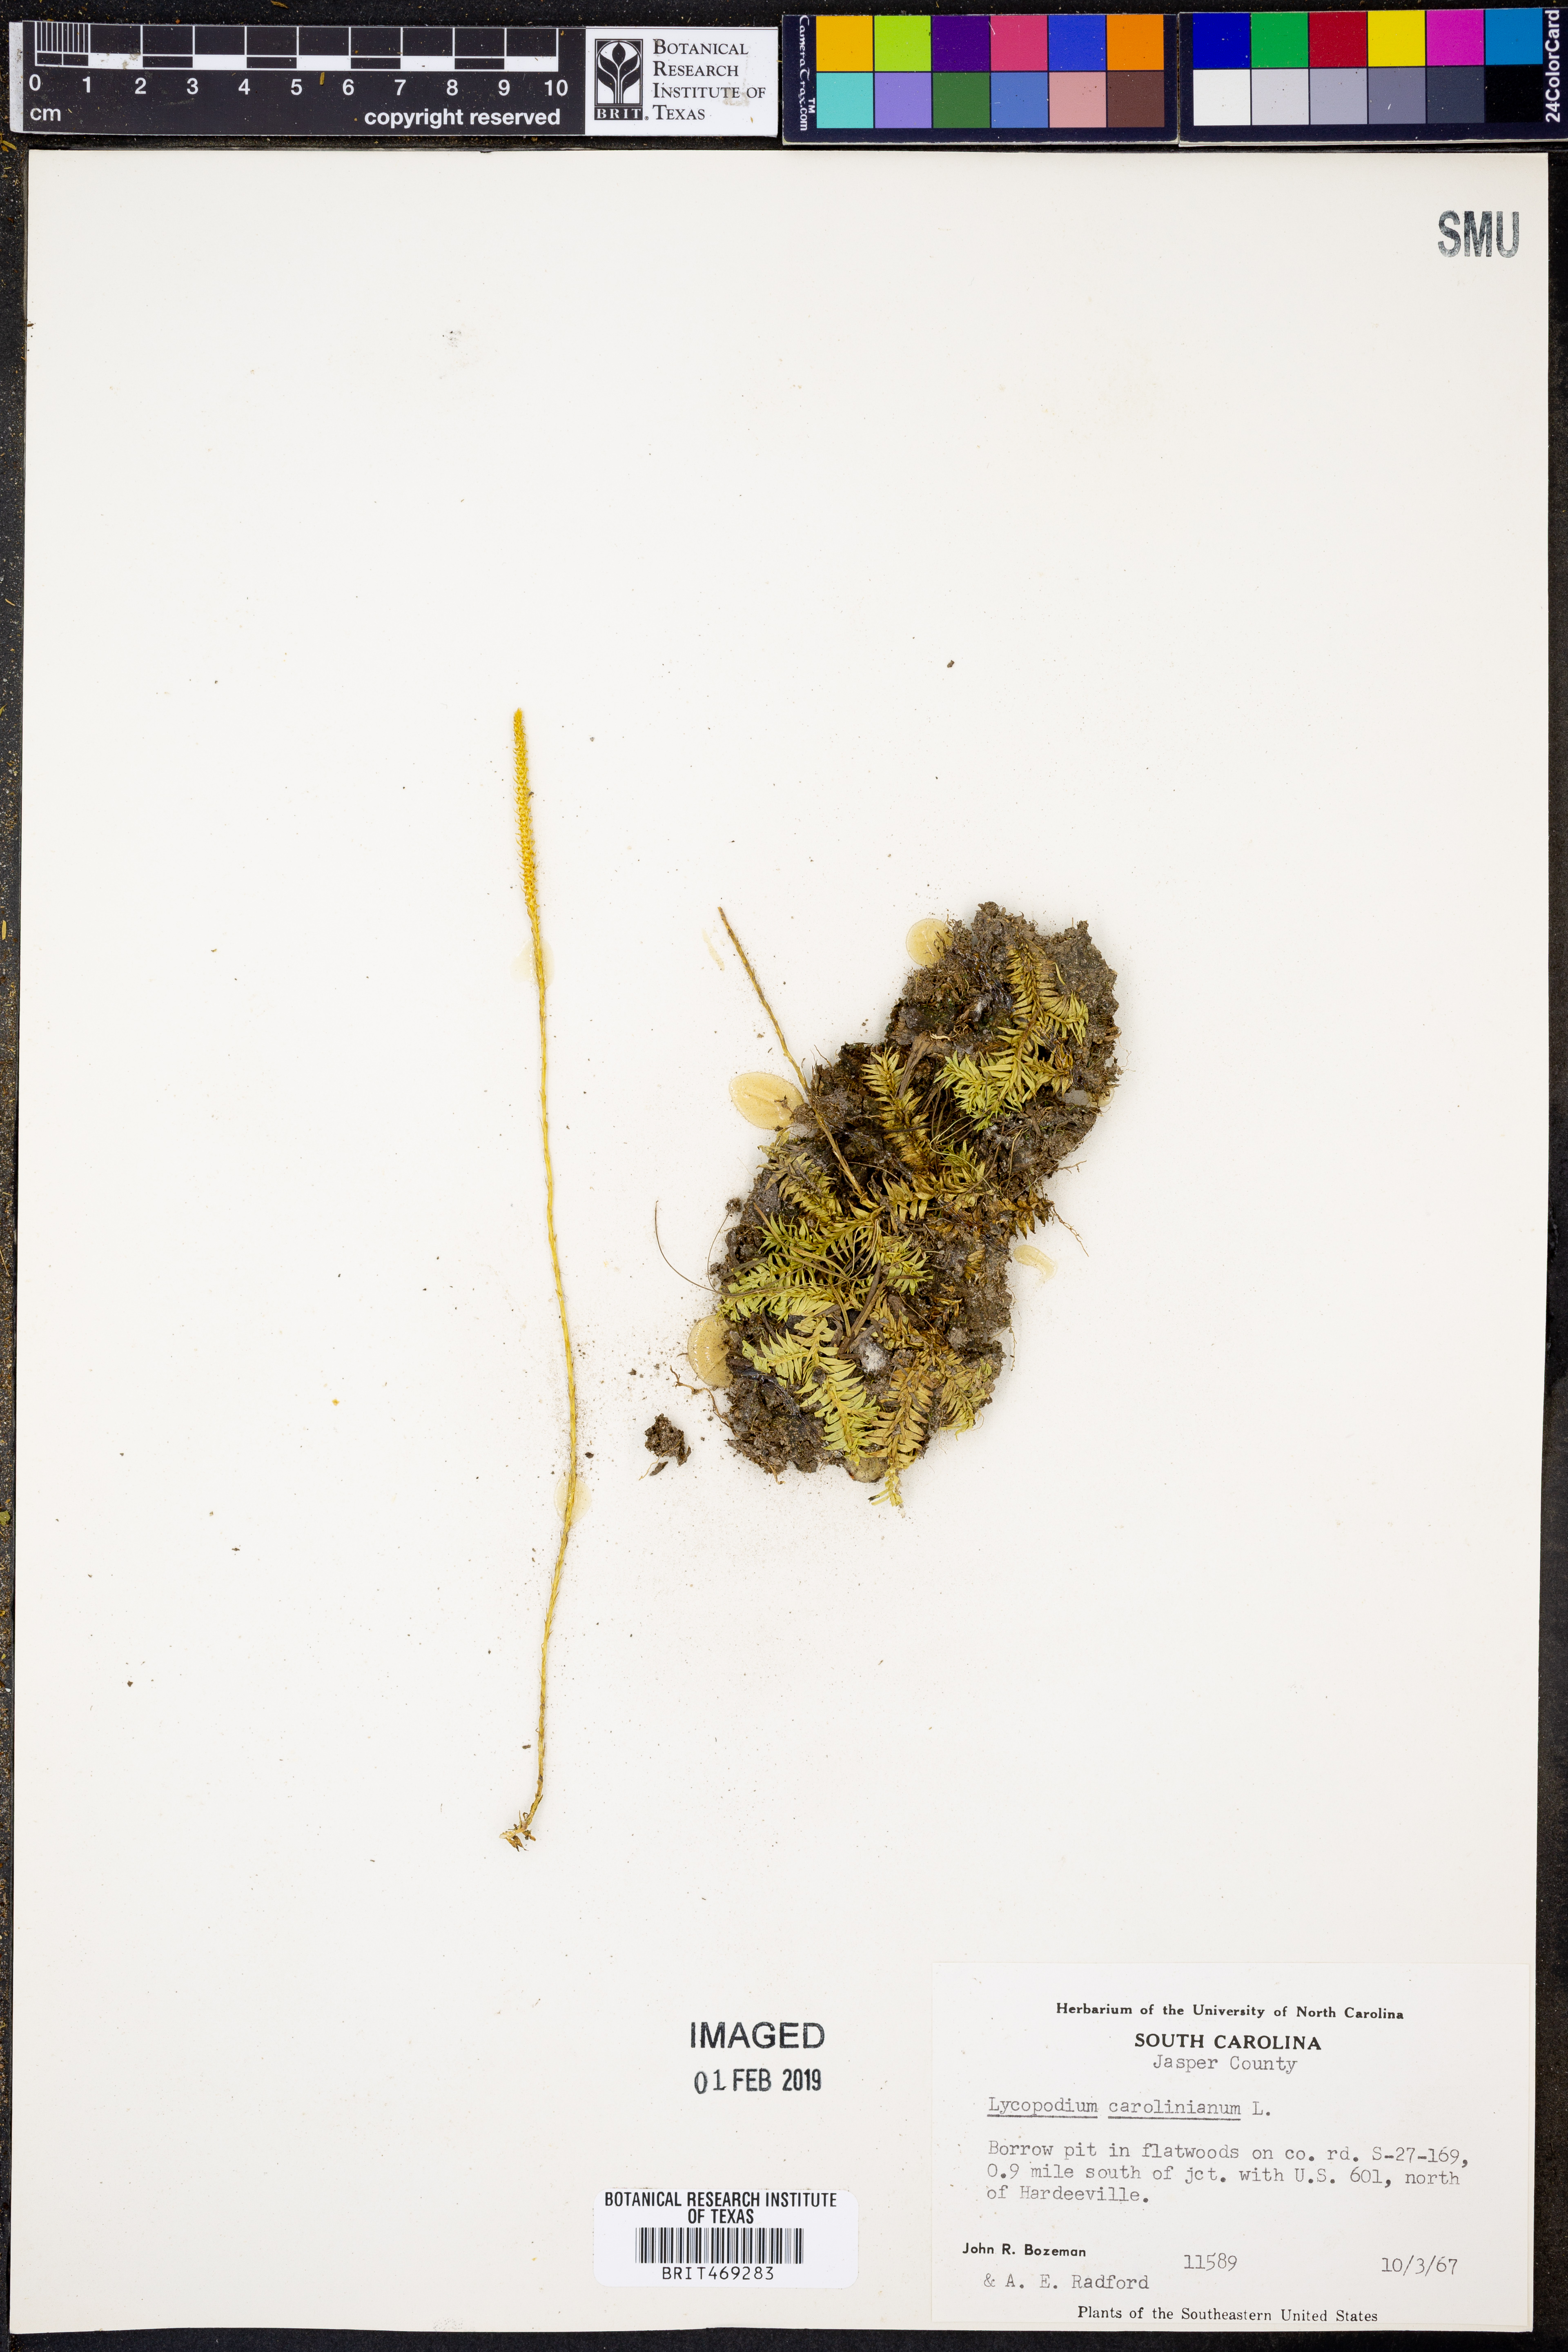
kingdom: Plantae
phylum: Tracheophyta
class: Lycopodiopsida
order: Lycopodiales
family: Lycopodiaceae
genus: Pseudolycopodiella
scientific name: Pseudolycopodiella caroliniana
